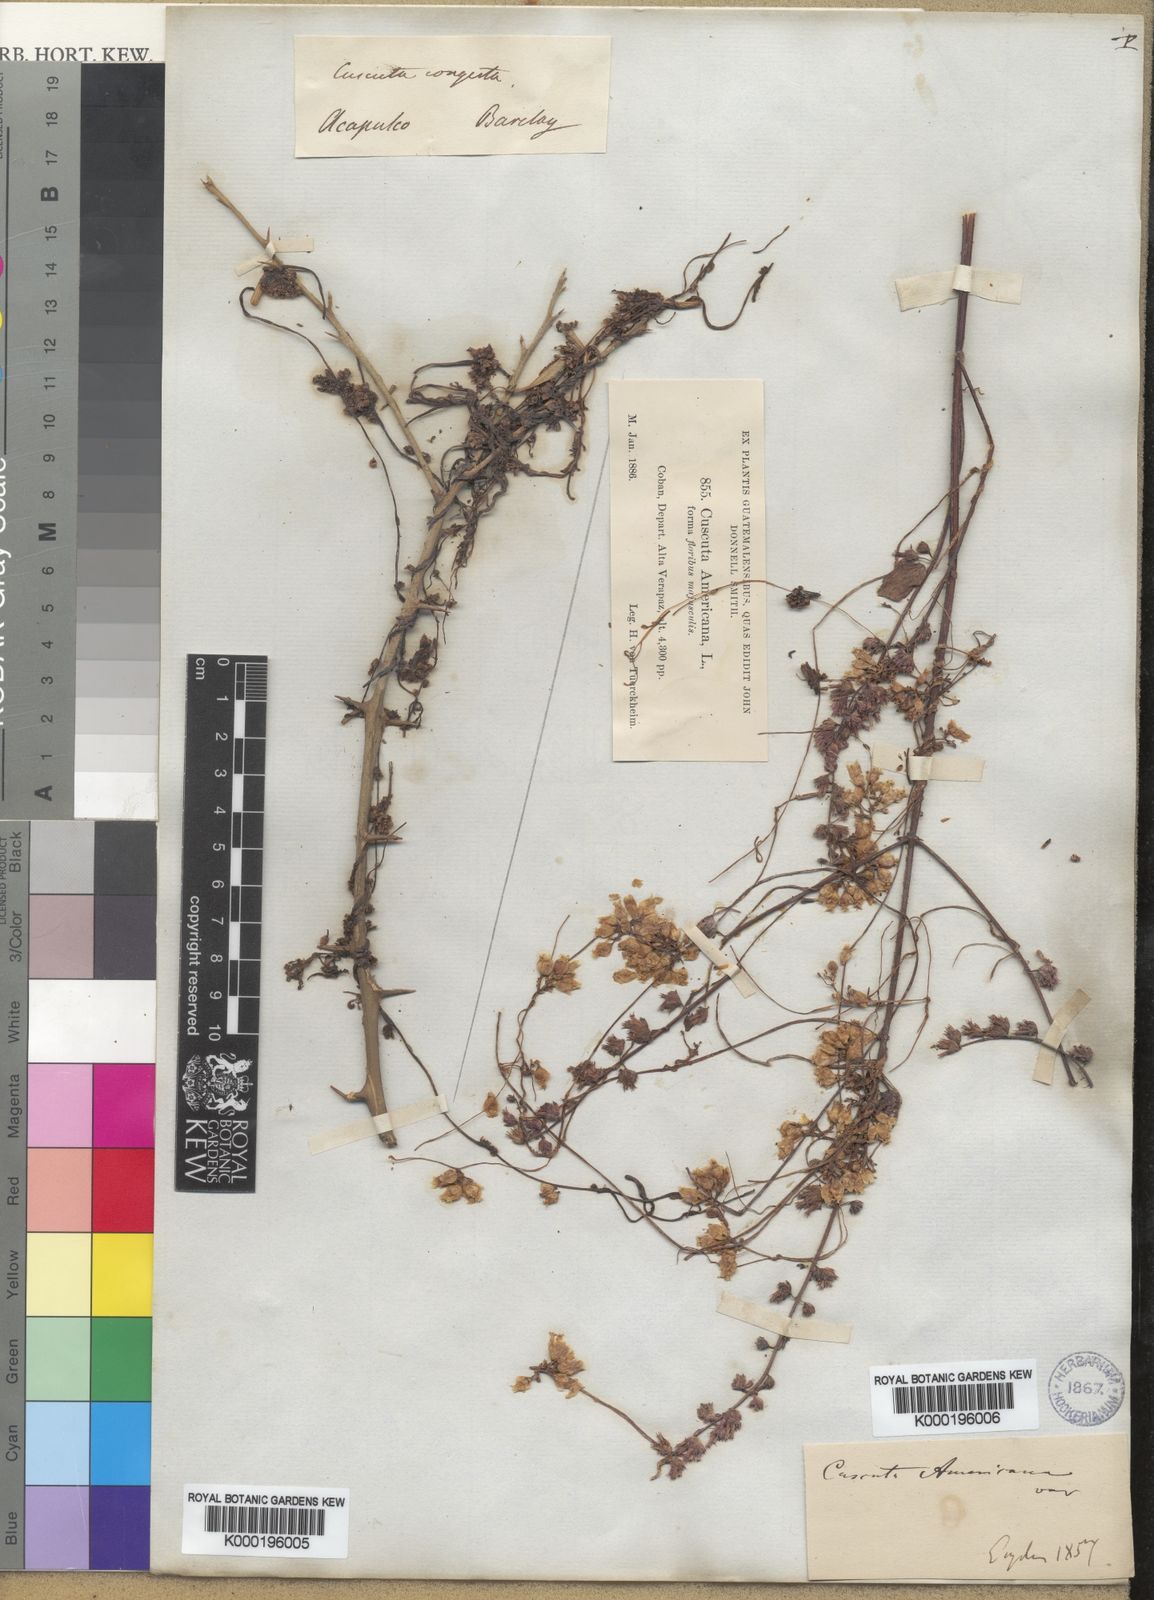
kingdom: Plantae
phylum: Tracheophyta
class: Magnoliopsida
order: Solanales
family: Convolvulaceae
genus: Cuscuta
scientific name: Cuscuta americana
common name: American dodder
